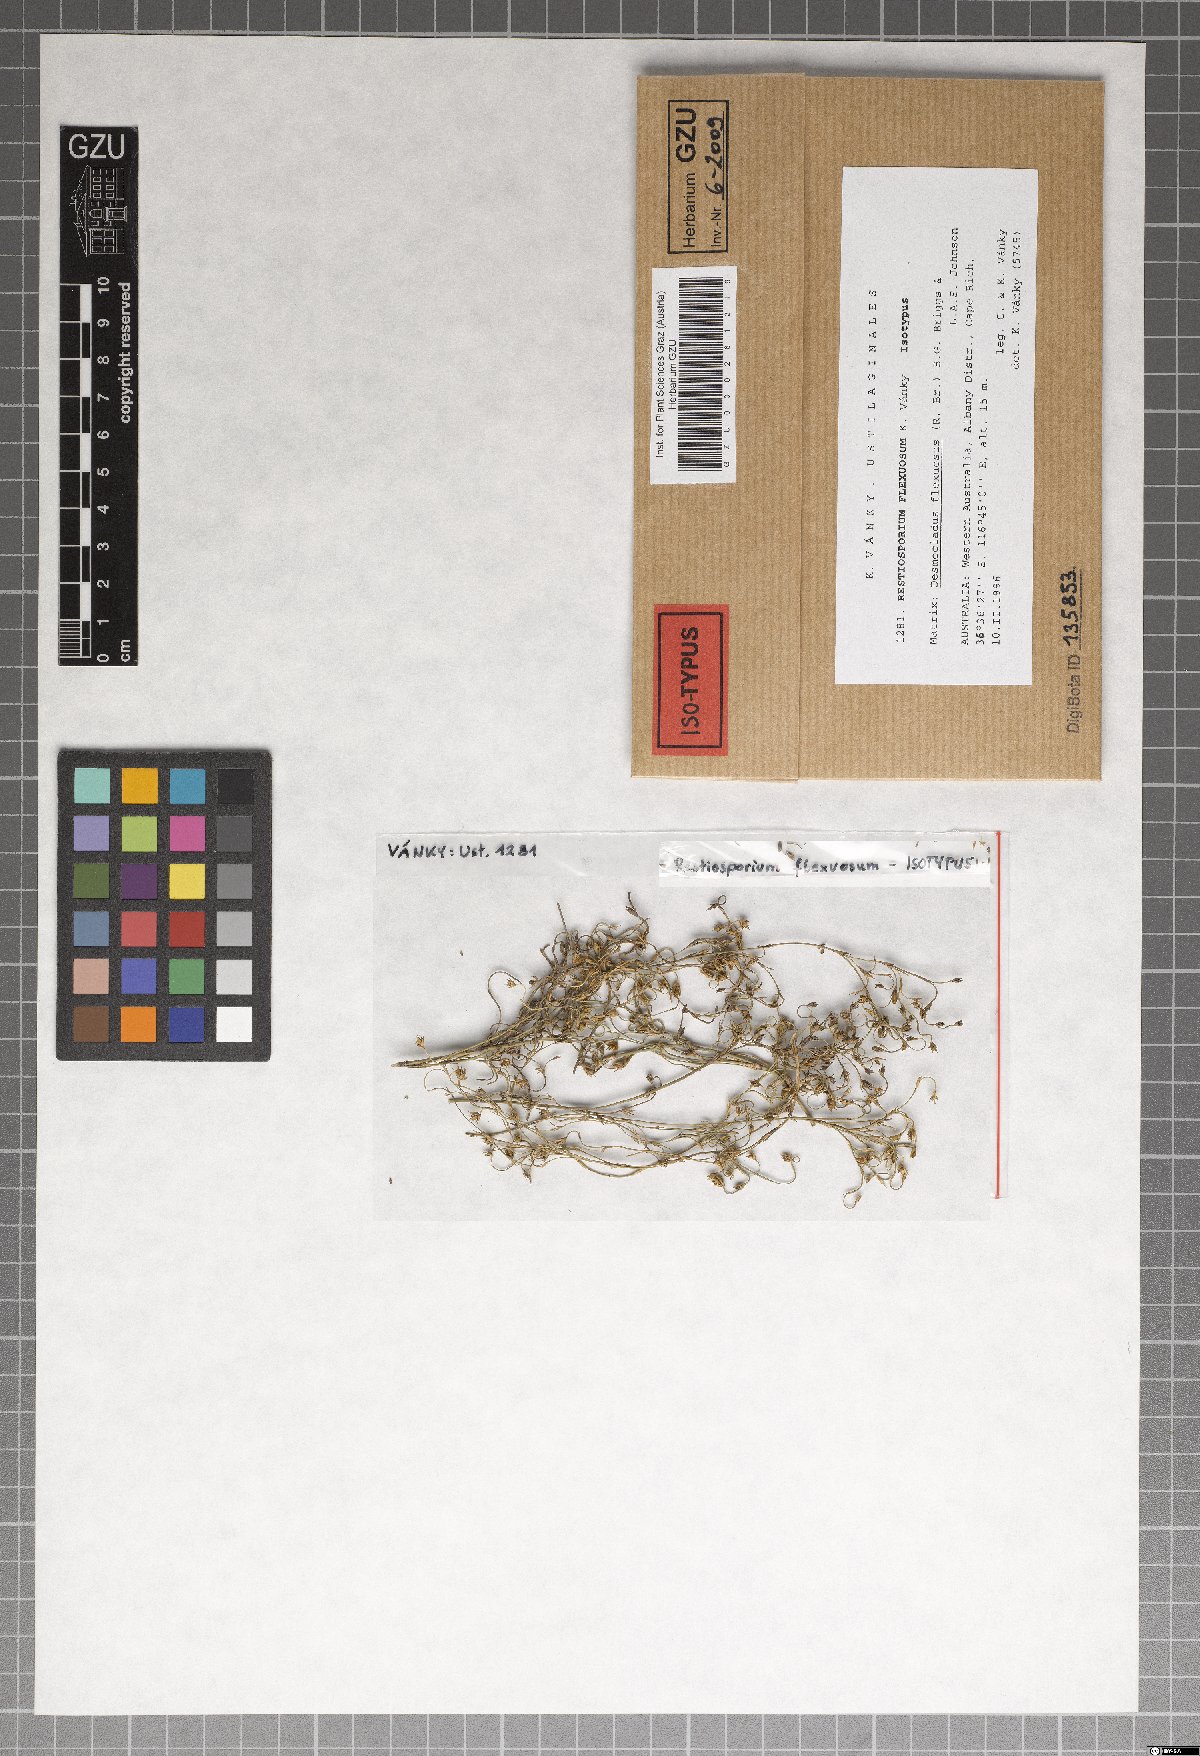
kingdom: Fungi
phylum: Basidiomycota
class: Ustilaginomycetes
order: Ustilaginales
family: Websdaneaceae
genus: Restiosporium
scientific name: Restiosporium flexuosum
